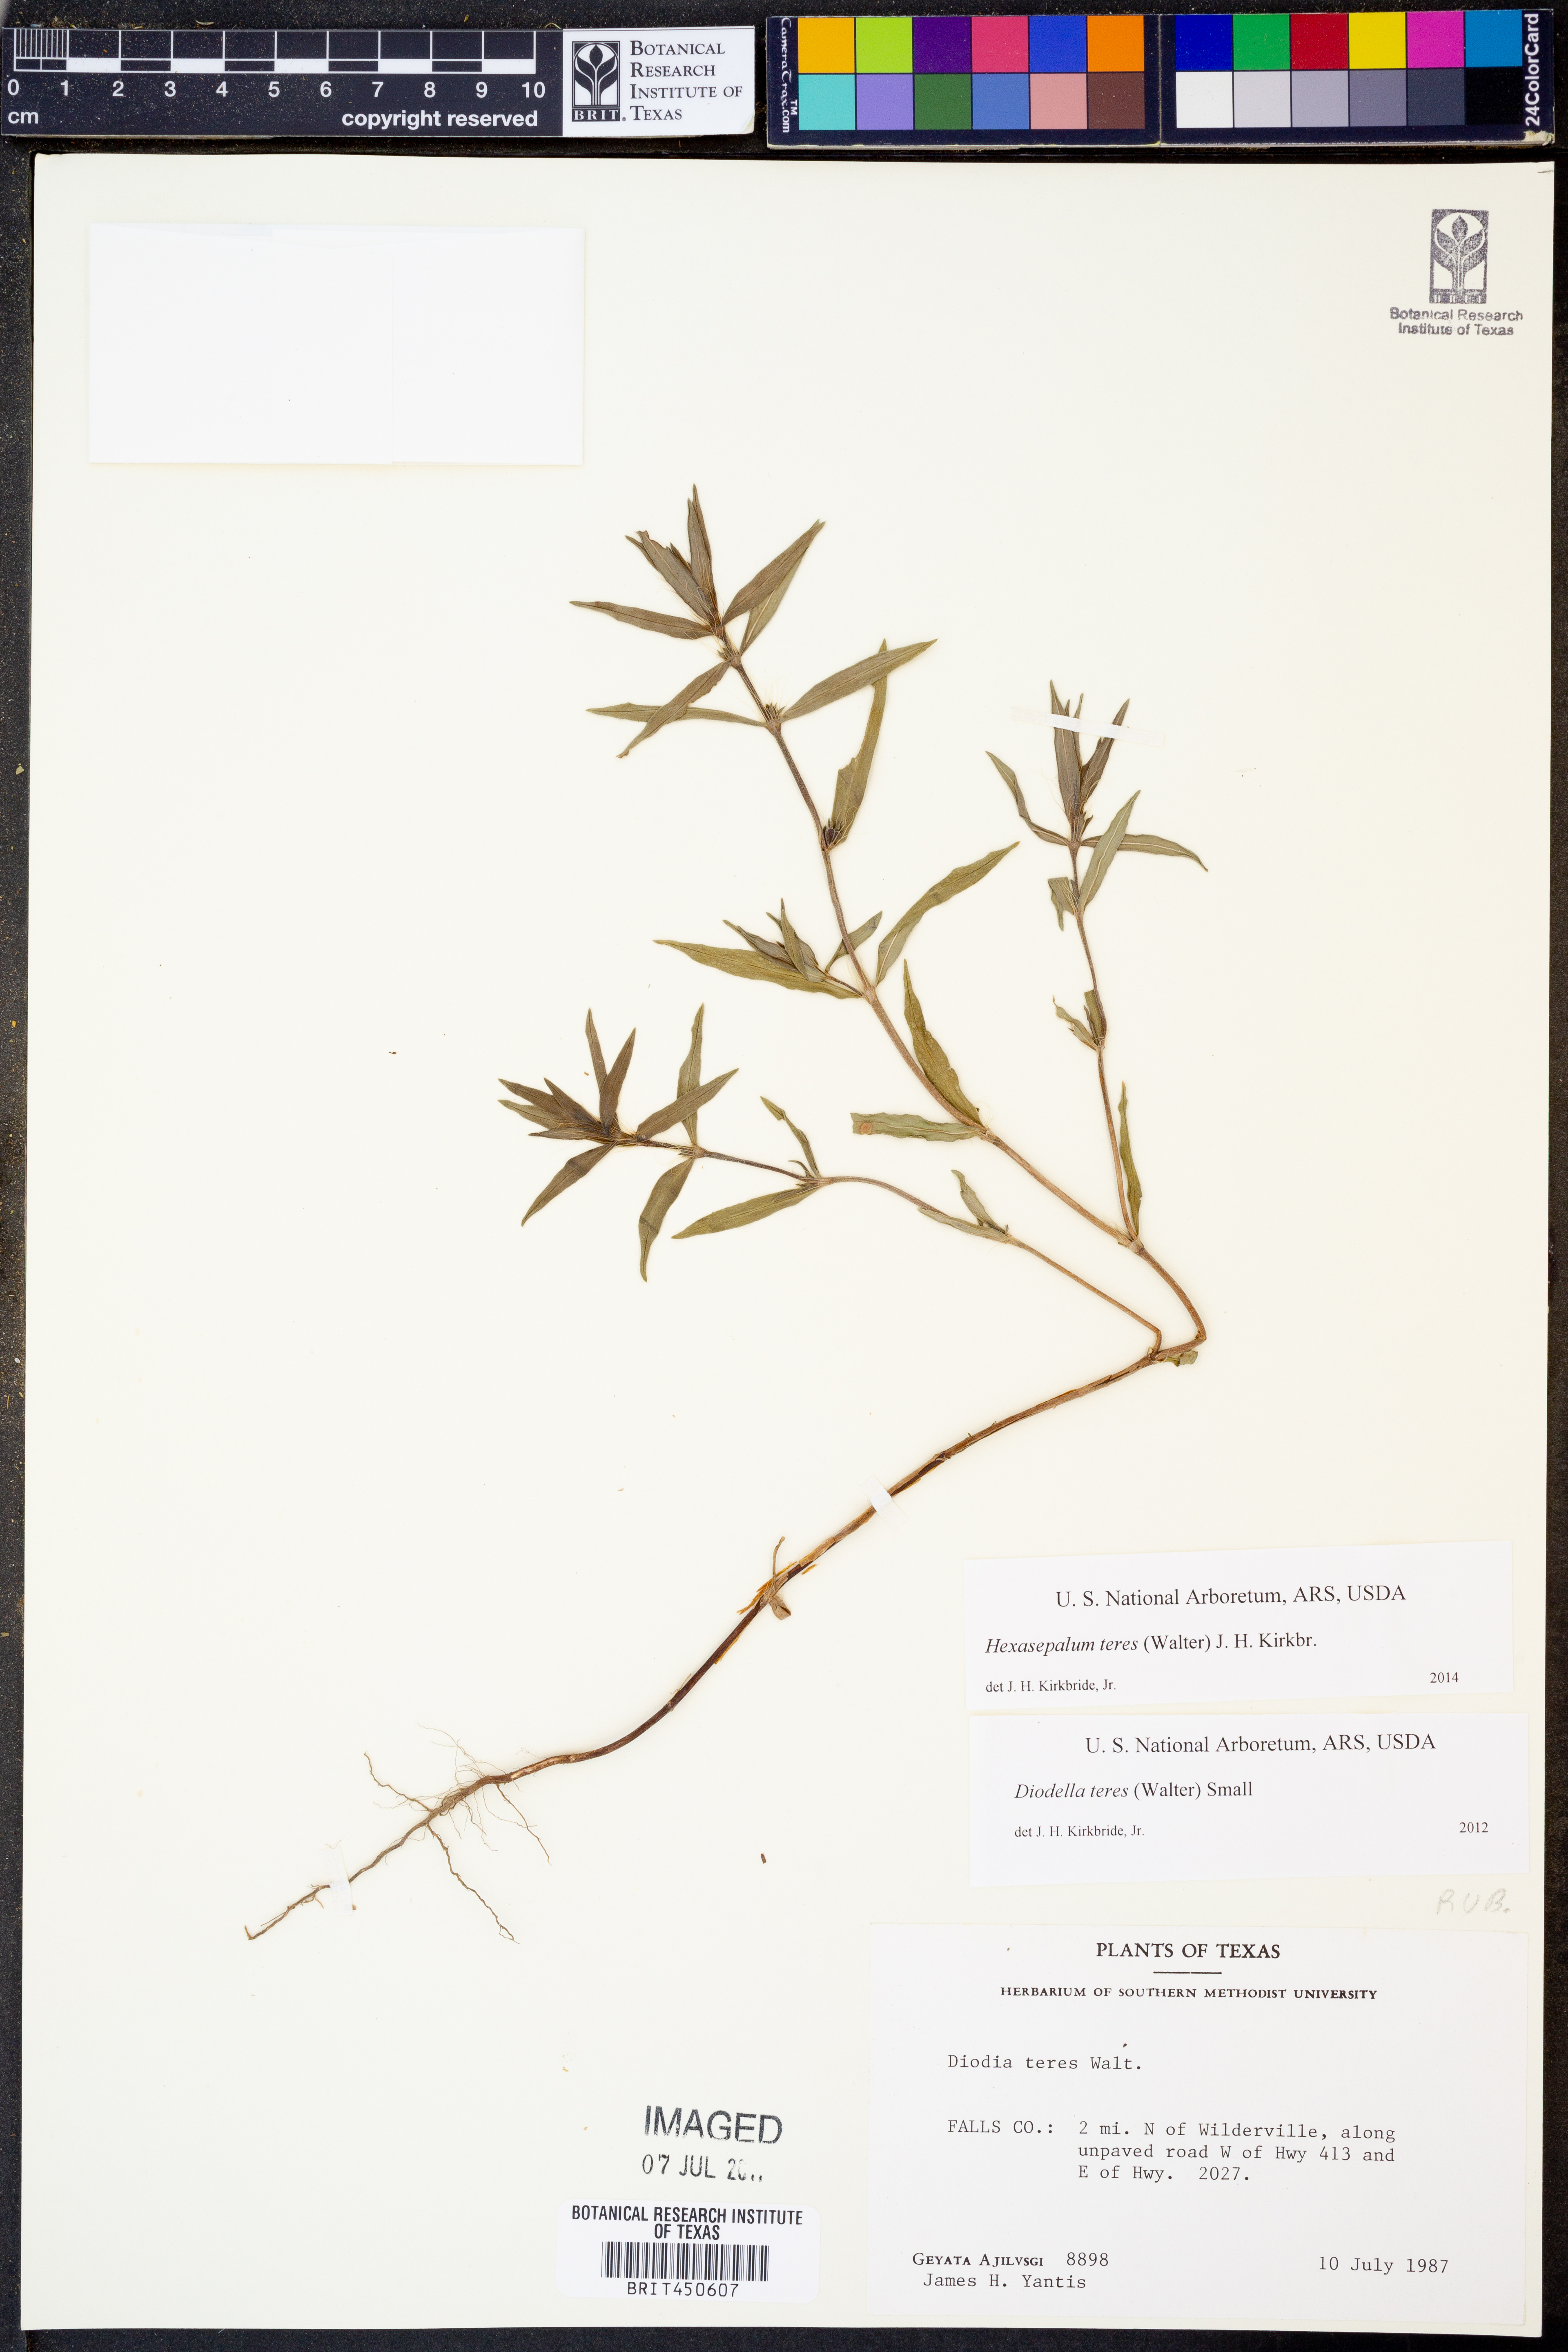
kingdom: Plantae
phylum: Tracheophyta
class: Magnoliopsida
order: Gentianales
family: Rubiaceae
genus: Hexasepalum
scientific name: Hexasepalum teres
